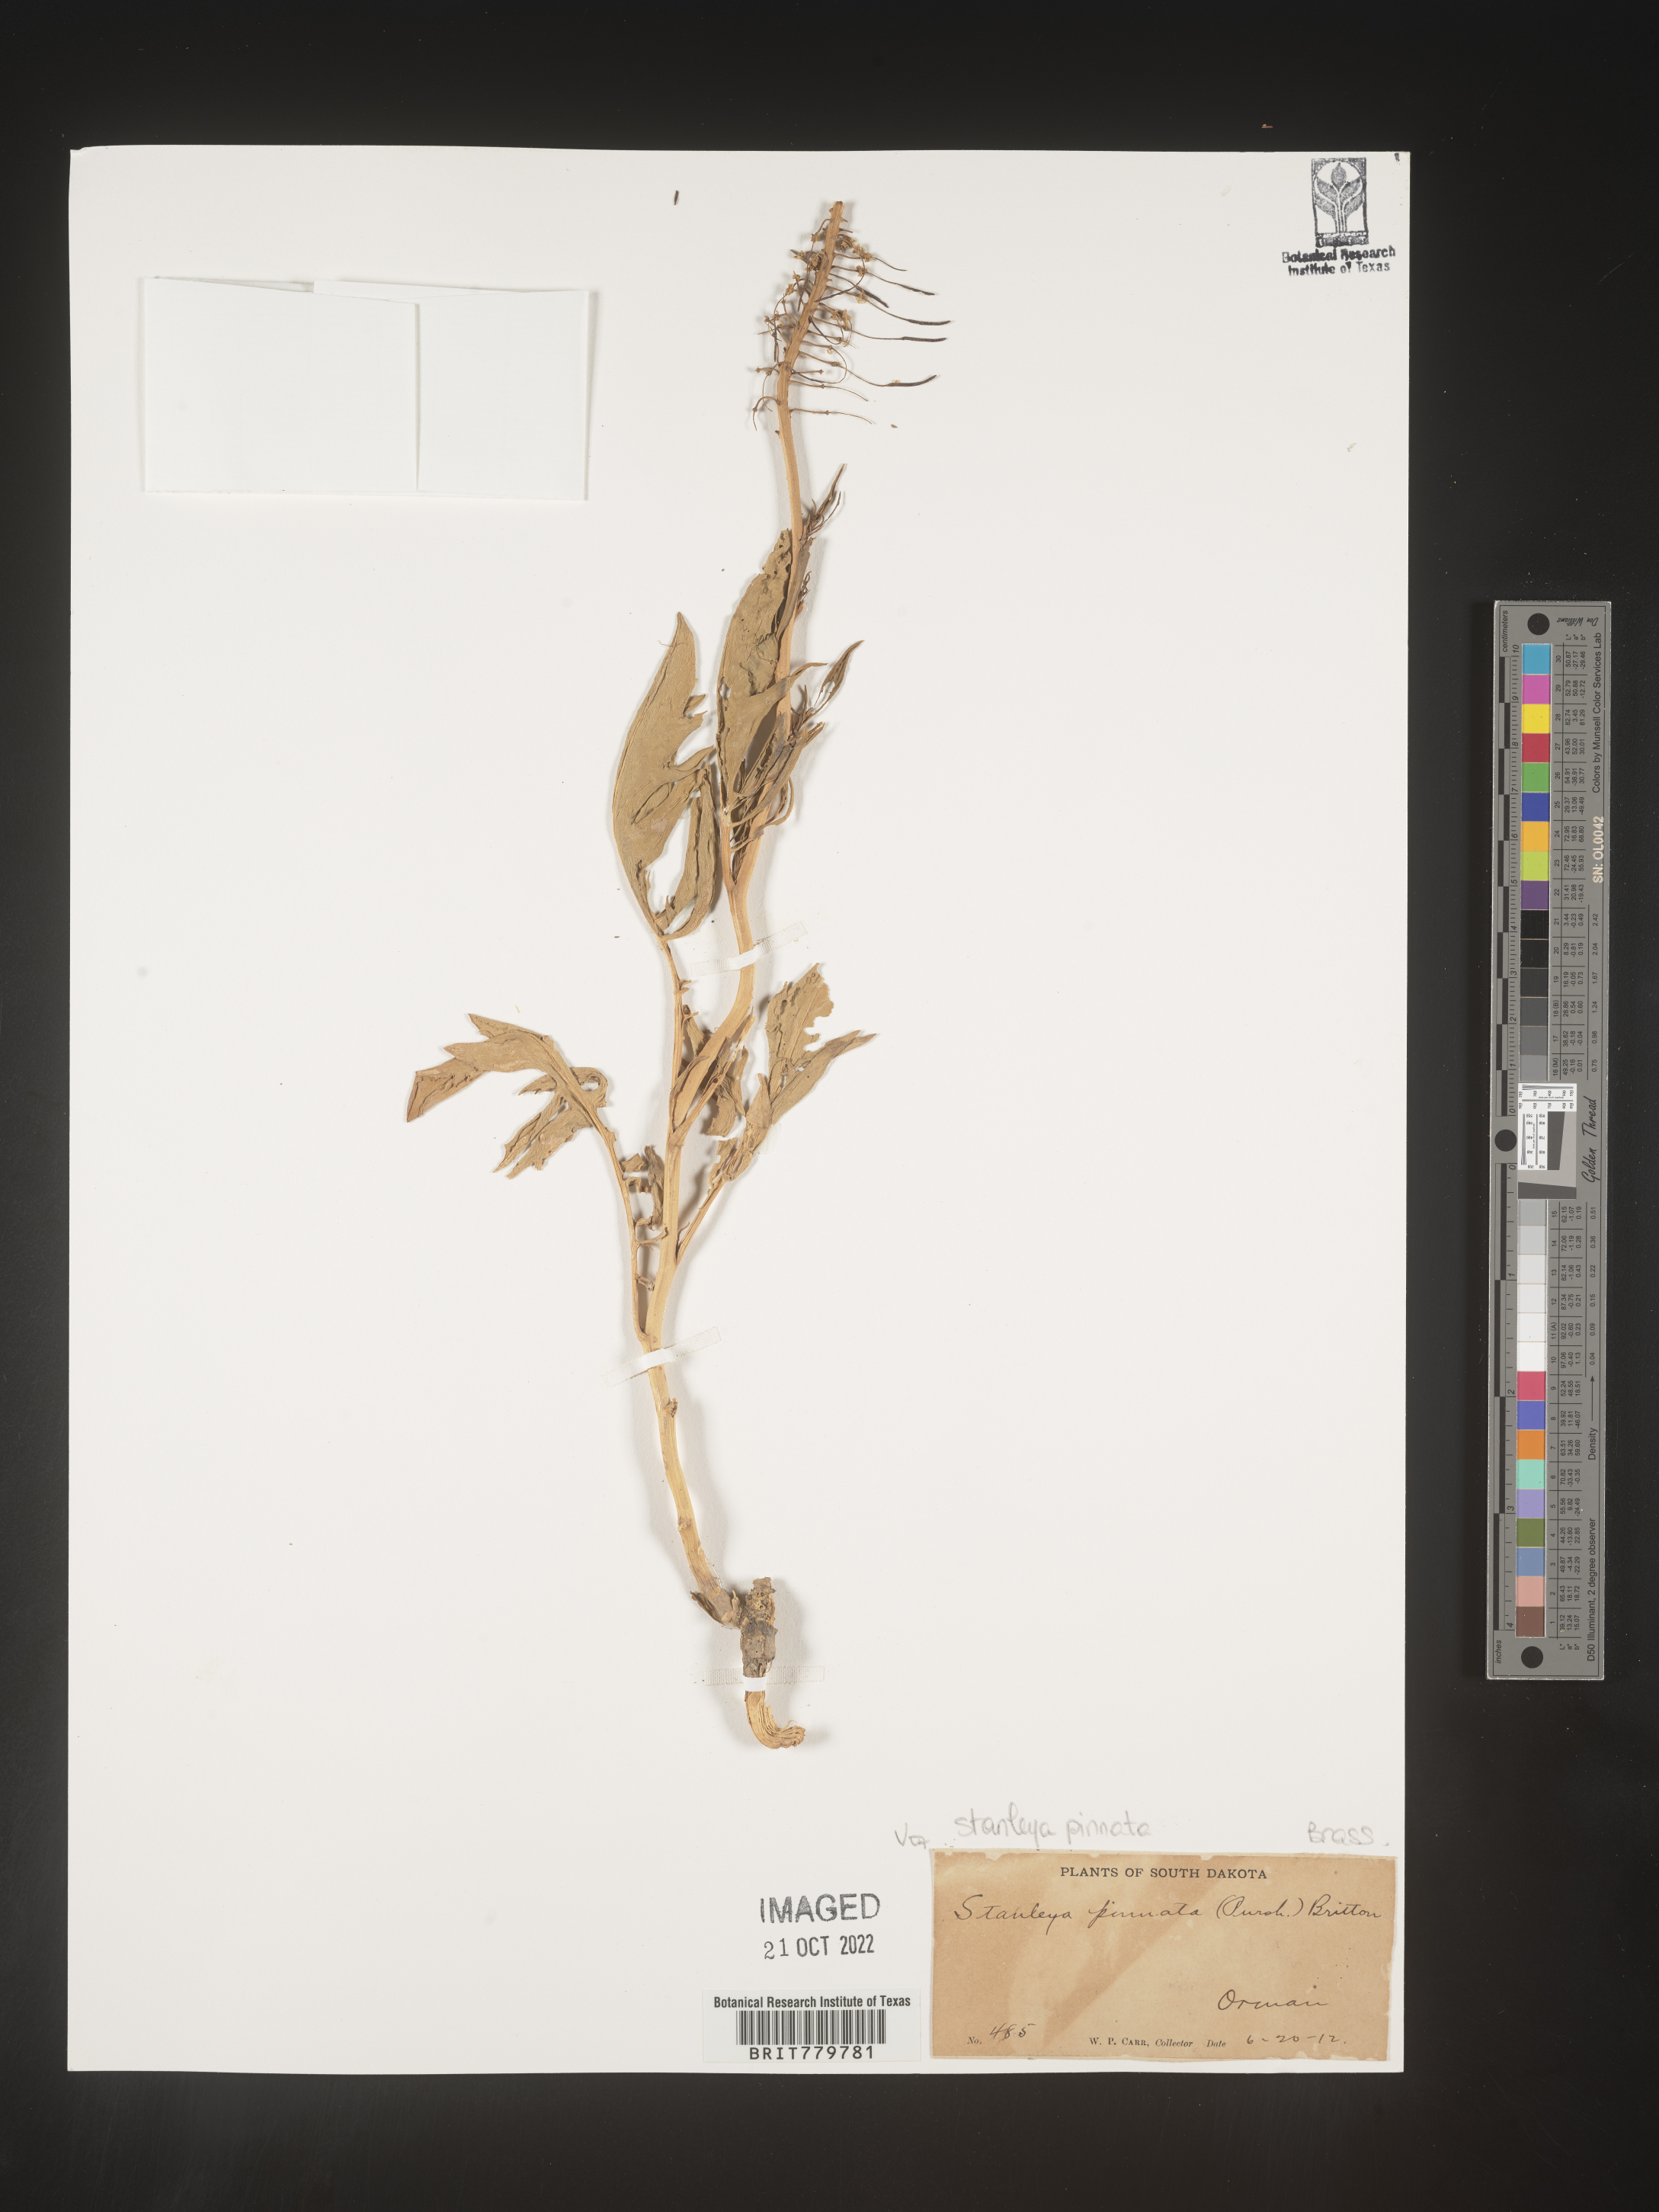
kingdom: Plantae
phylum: Tracheophyta
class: Magnoliopsida
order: Brassicales
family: Brassicaceae
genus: Thelypodium
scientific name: Thelypodium
